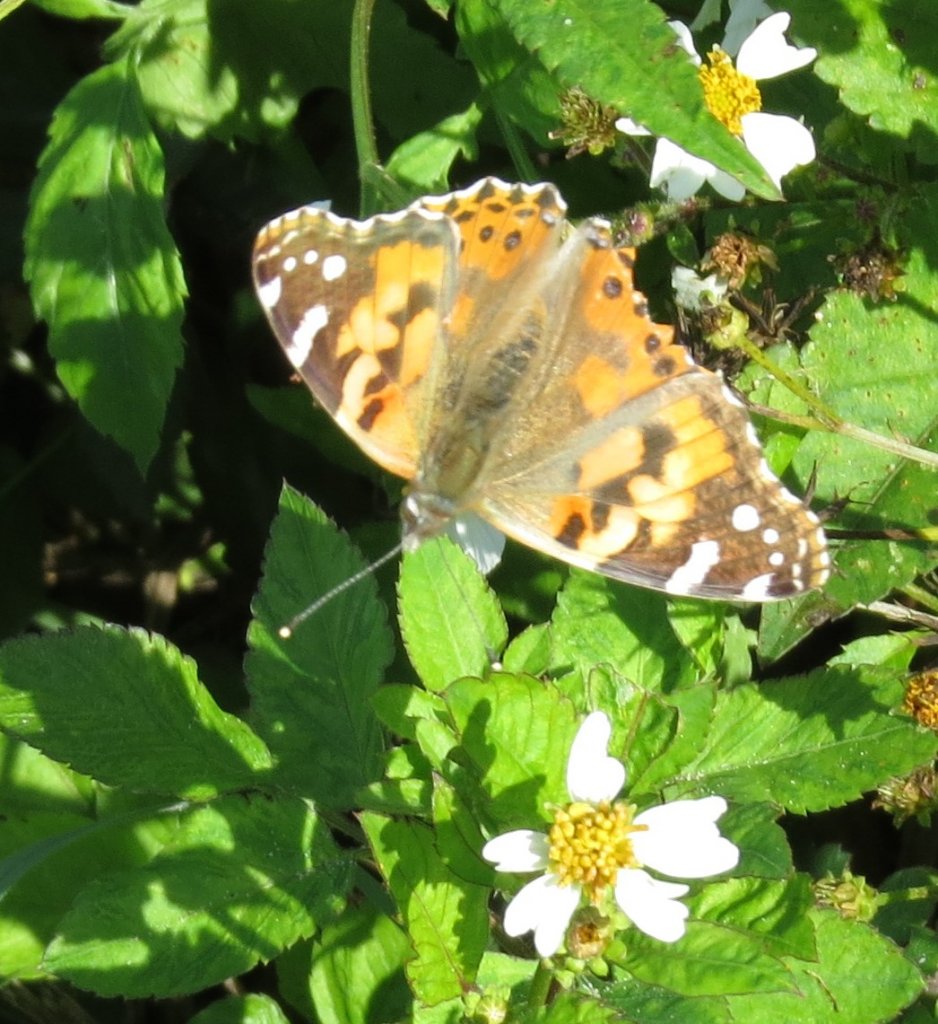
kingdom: Animalia
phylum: Arthropoda
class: Insecta
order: Lepidoptera
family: Nymphalidae
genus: Vanessa
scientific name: Vanessa cardui
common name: Painted Lady
